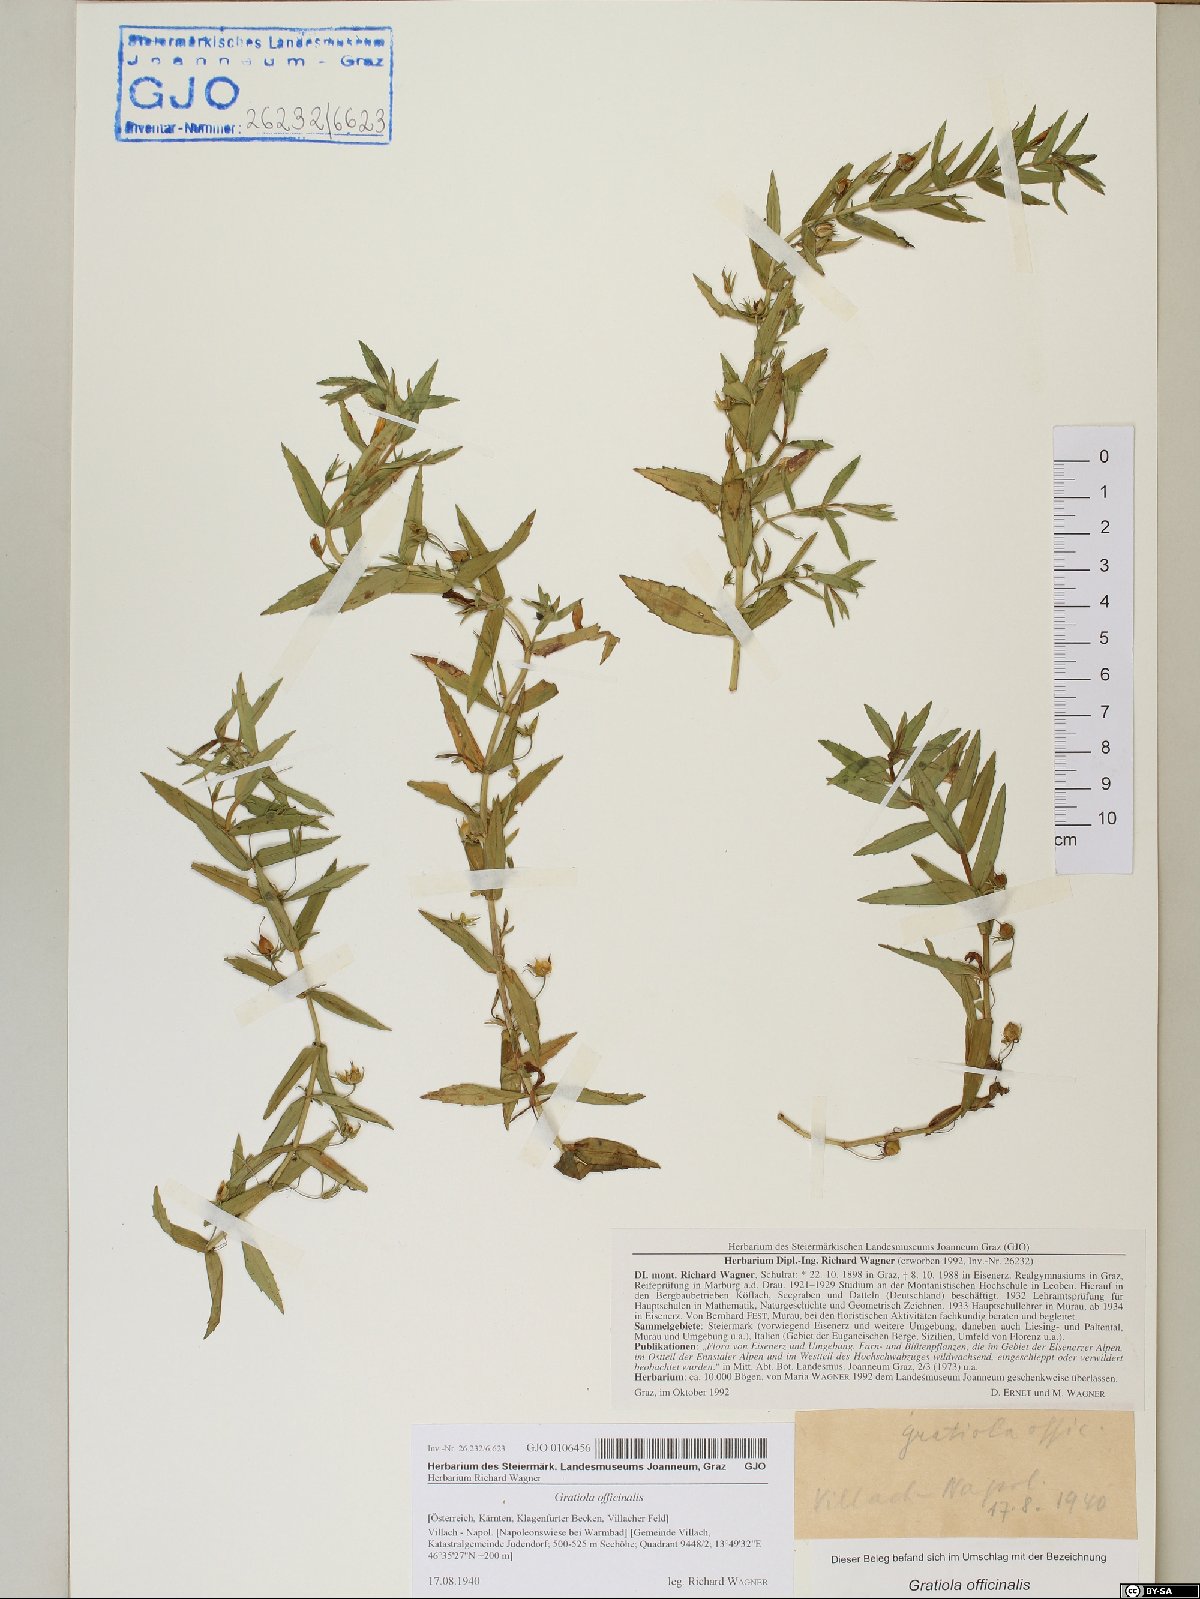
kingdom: Plantae
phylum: Tracheophyta
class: Magnoliopsida
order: Lamiales
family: Plantaginaceae
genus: Gratiola
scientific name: Gratiola officinalis
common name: Gratiola
